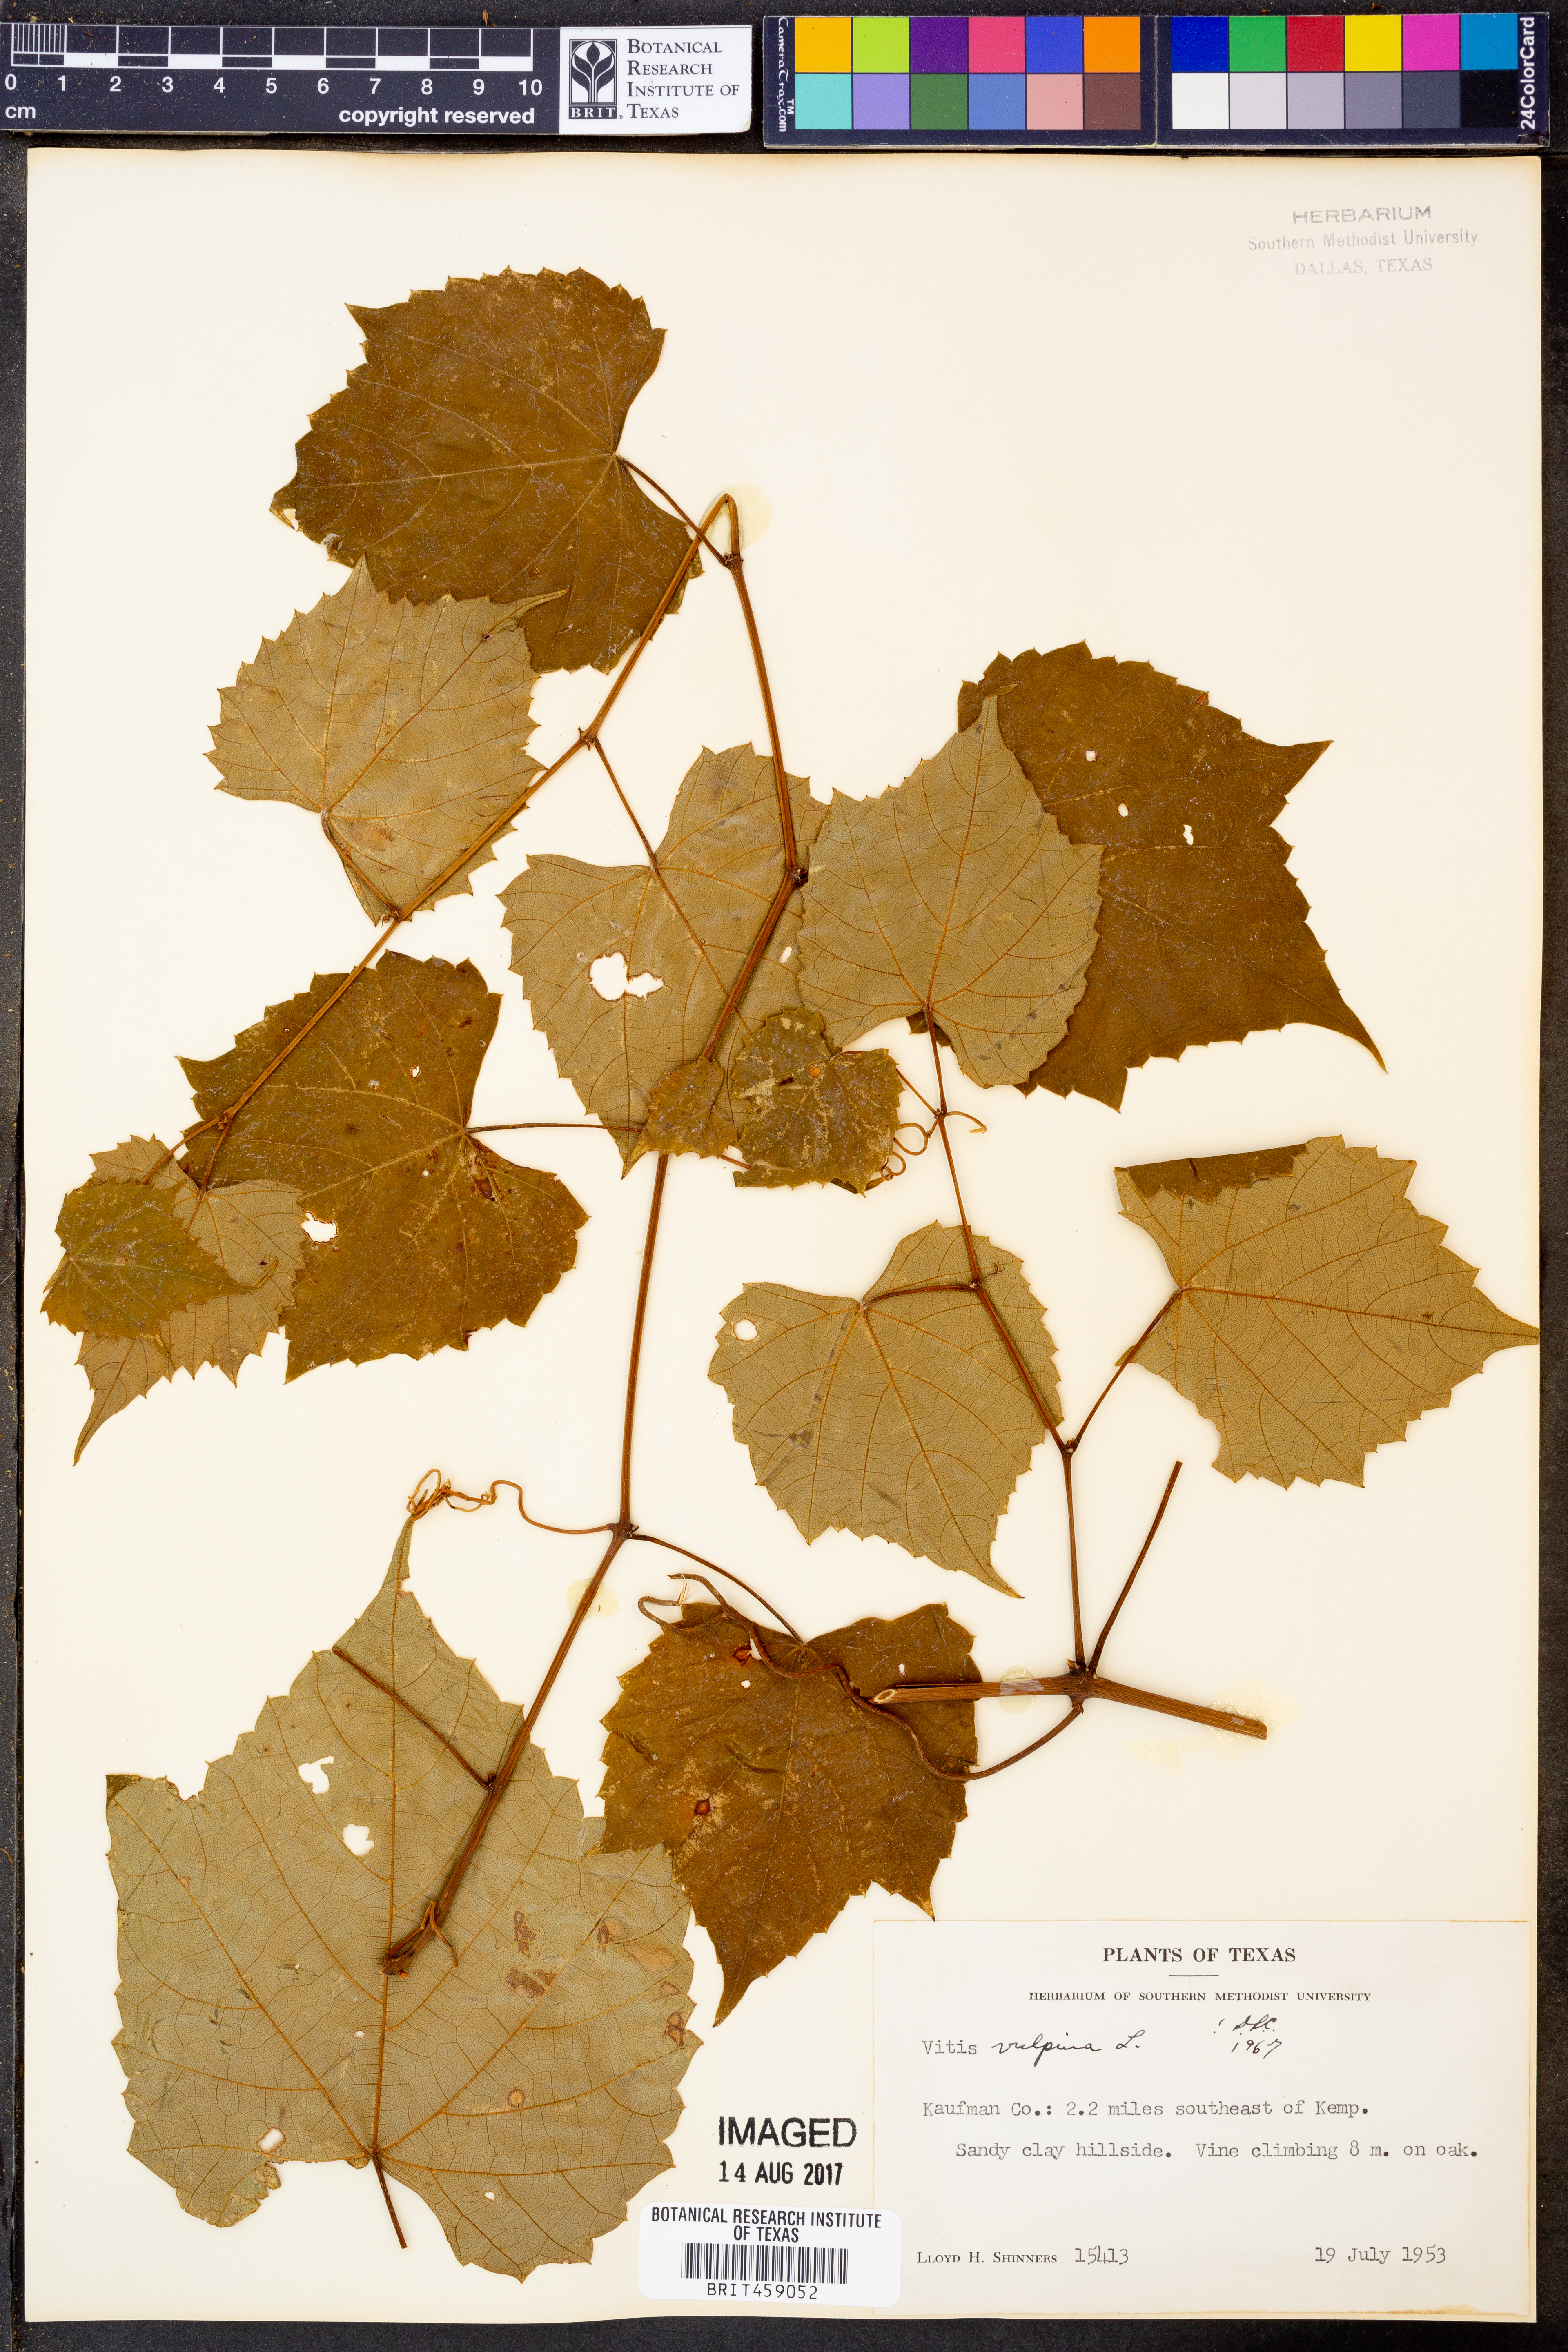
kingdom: Plantae
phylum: Tracheophyta
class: Magnoliopsida
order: Vitales
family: Vitaceae
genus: Vitis
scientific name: Vitis vulpina
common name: Frost grape
